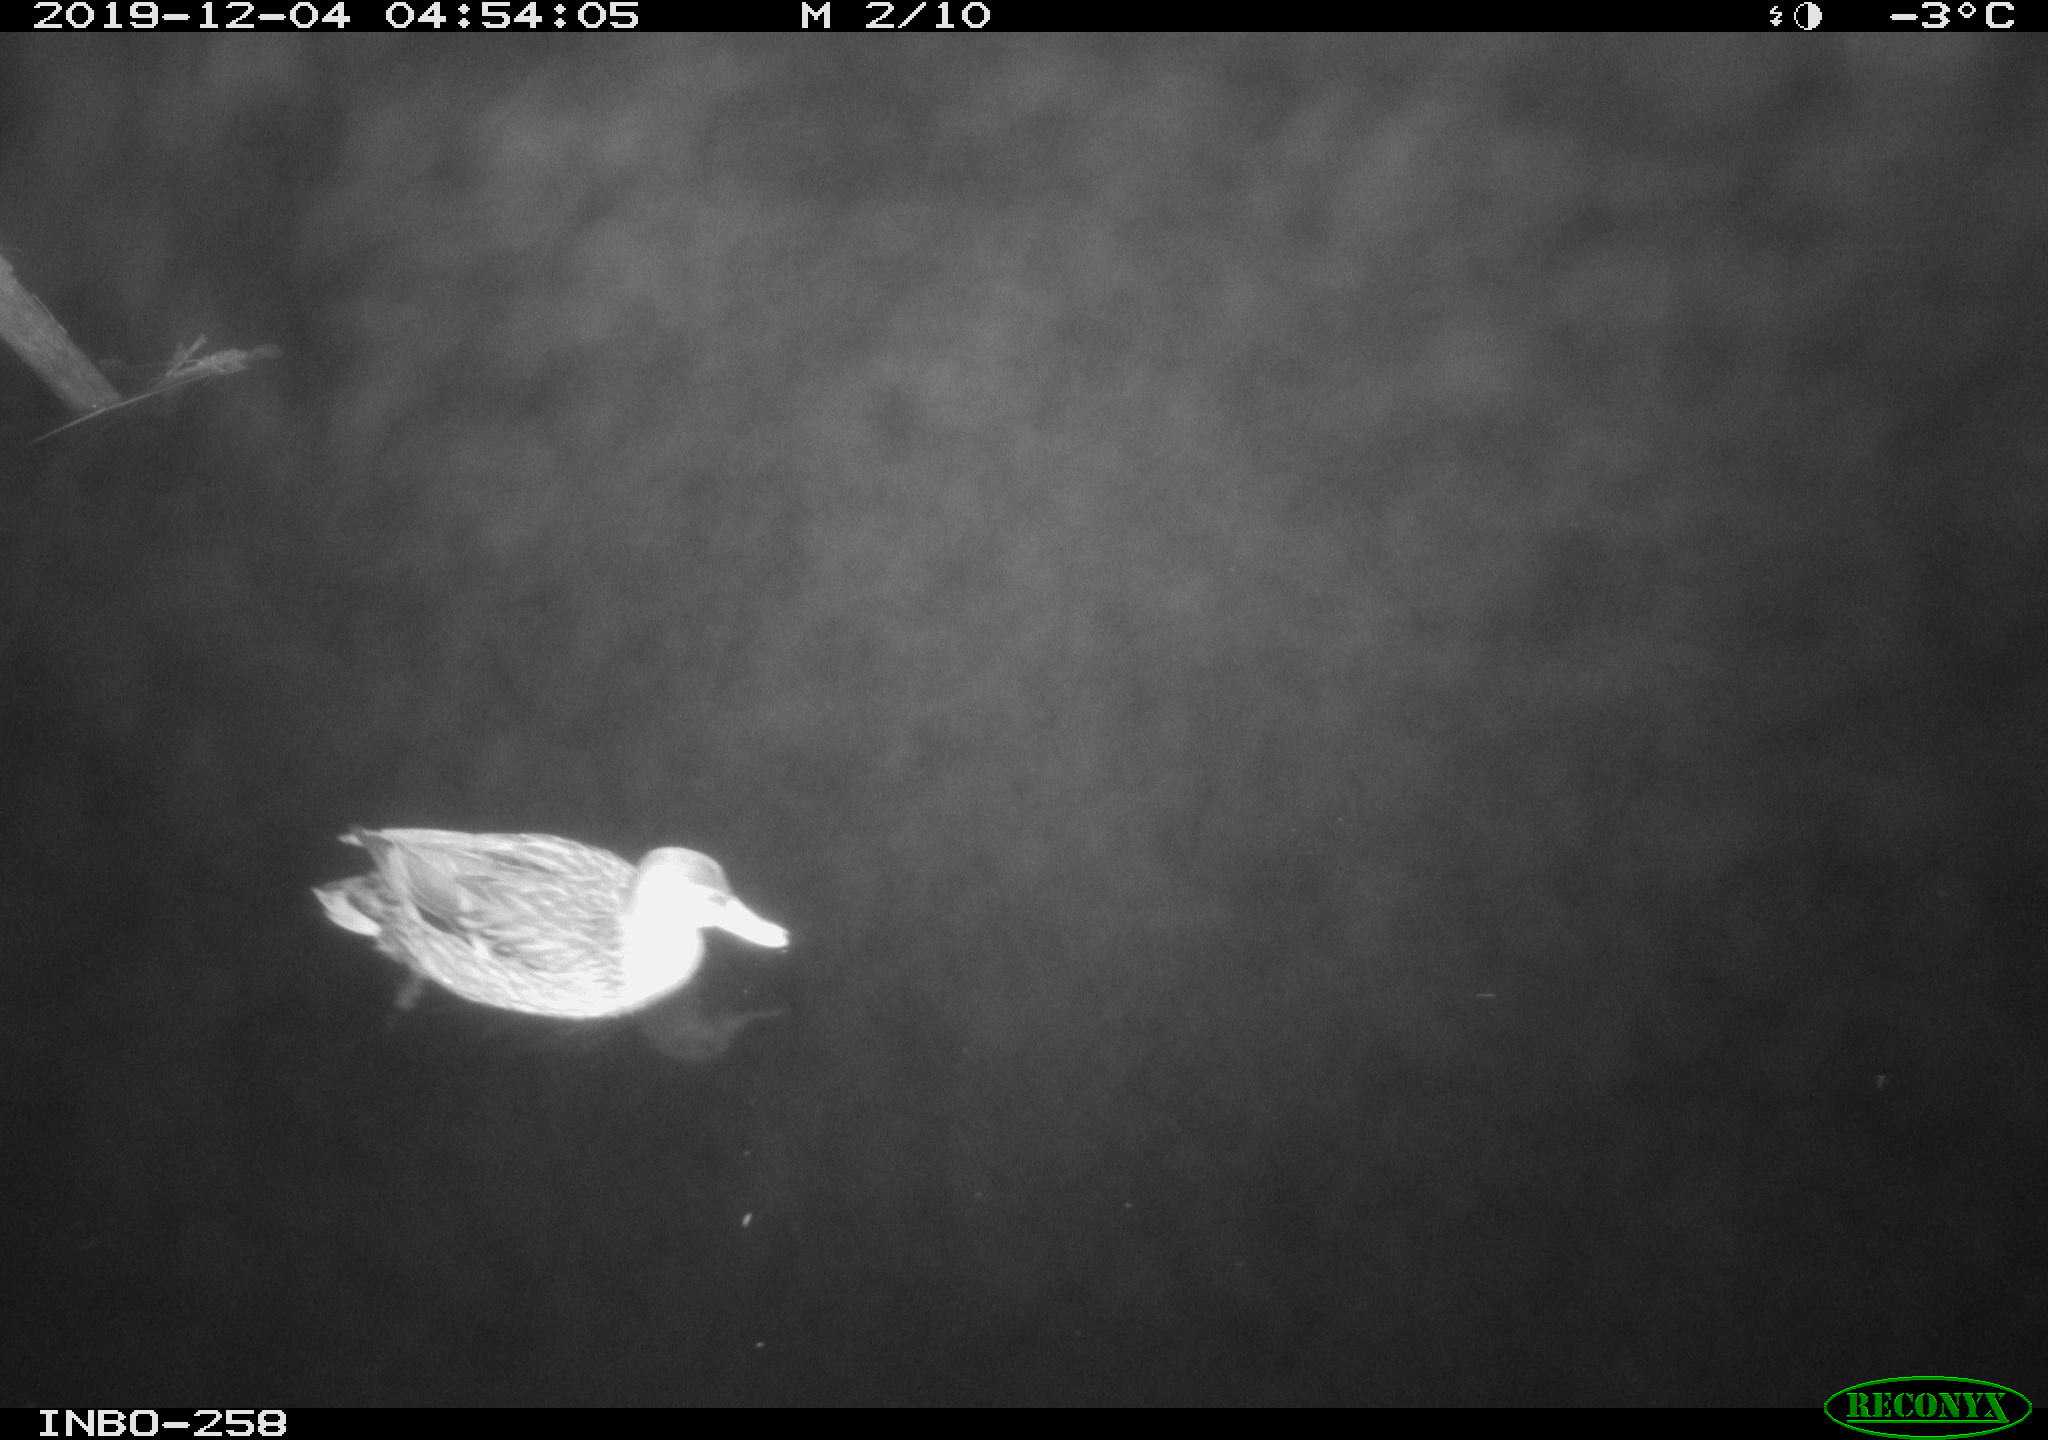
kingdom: Animalia
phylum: Chordata
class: Aves
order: Anseriformes
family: Anatidae
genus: Anas
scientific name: Anas platyrhynchos
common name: Mallard
